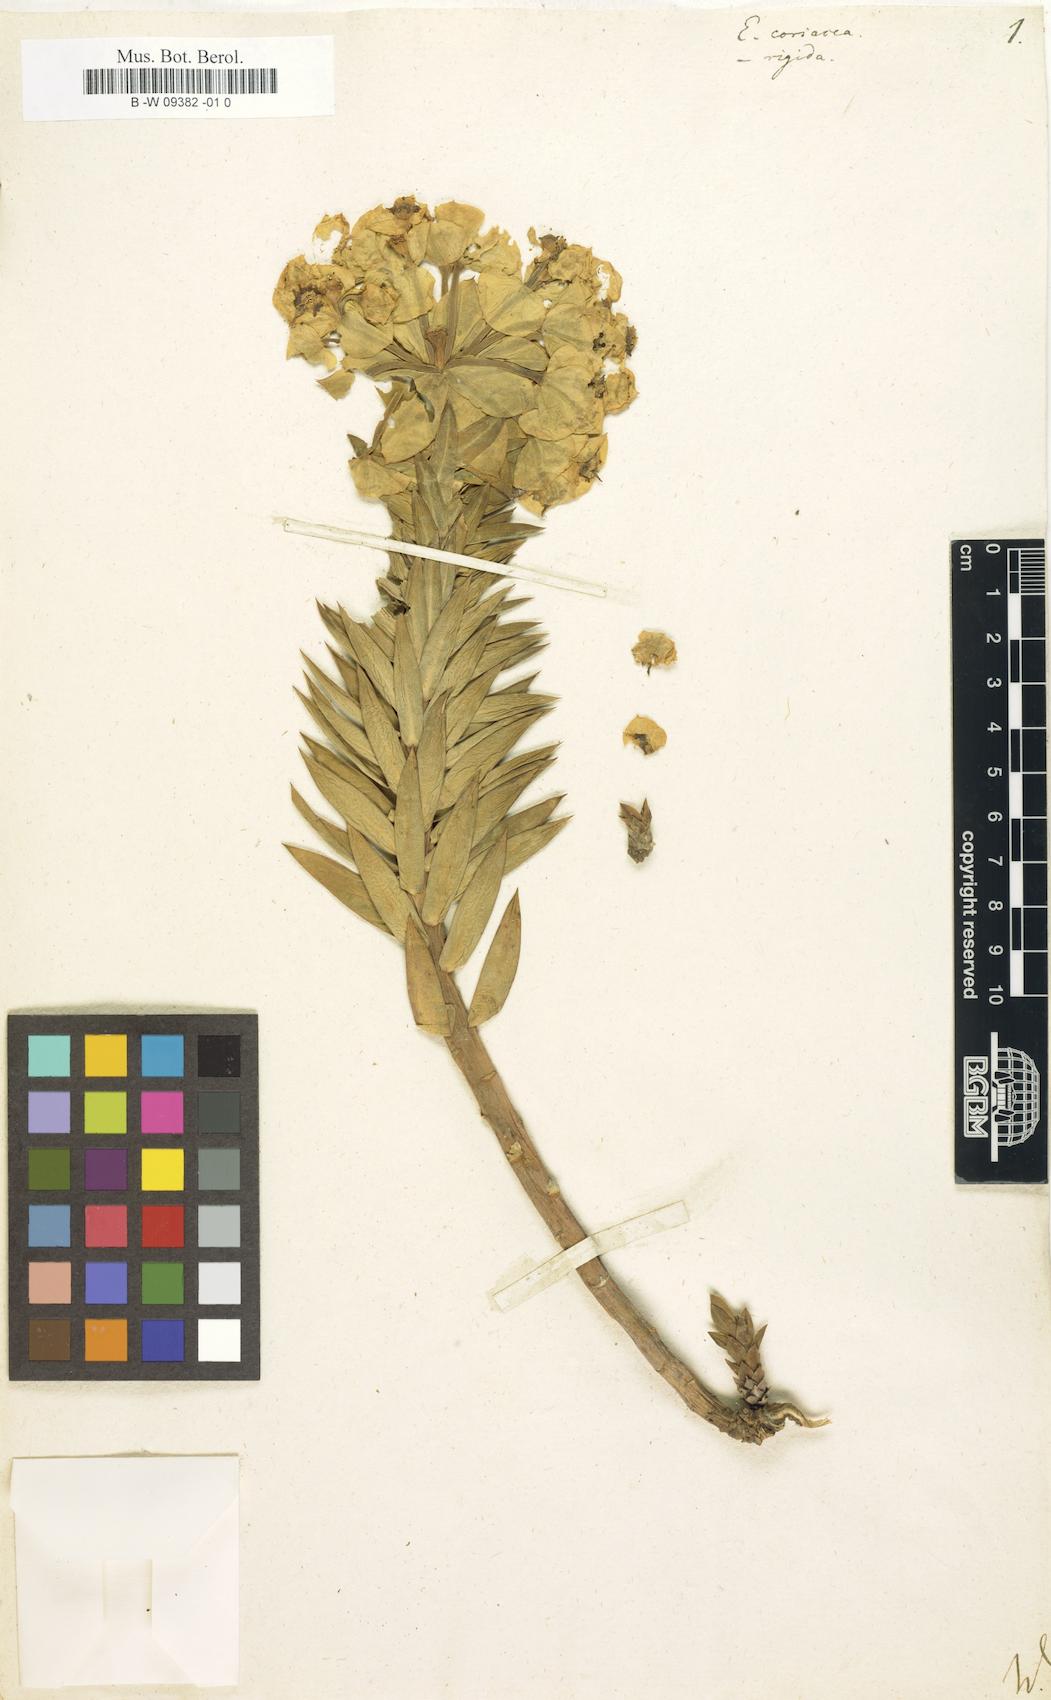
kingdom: Plantae
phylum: Tracheophyta
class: Magnoliopsida
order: Malpighiales
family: Euphorbiaceae
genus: Euphorbia
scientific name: Euphorbia heteradena
